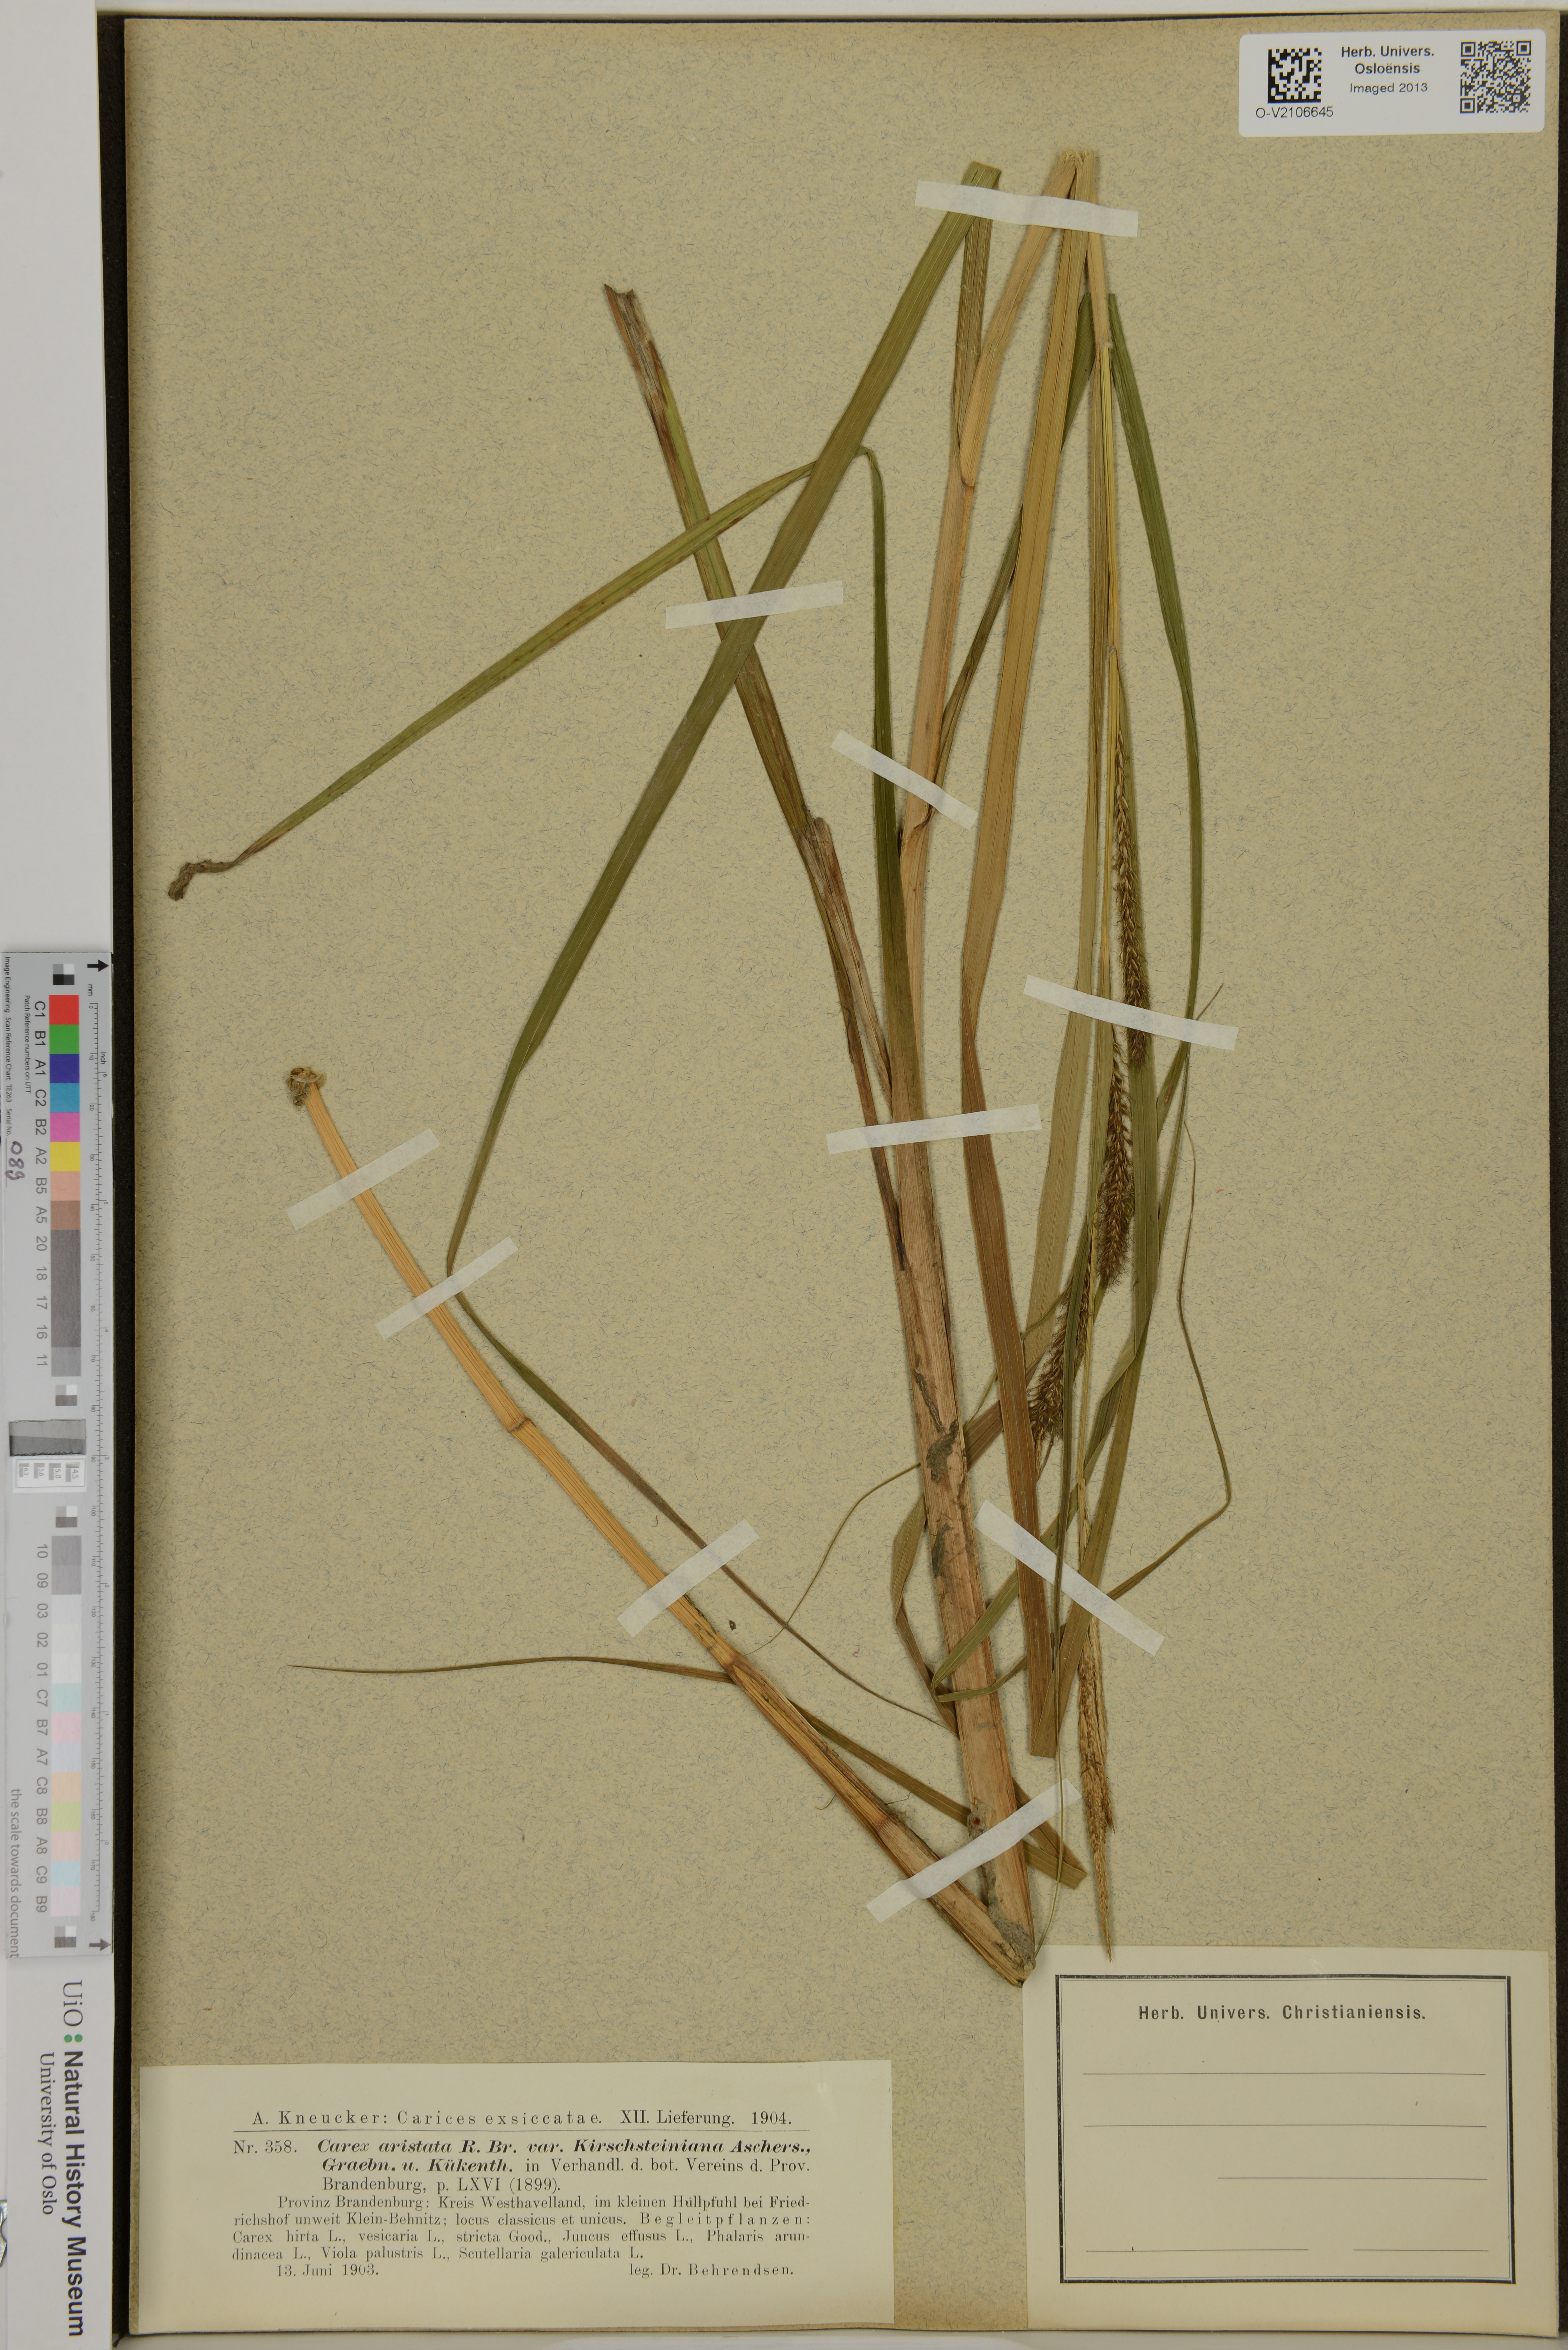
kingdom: Plantae
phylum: Tracheophyta
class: Liliopsida
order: Poales
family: Cyperaceae
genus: Carex
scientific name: Carex atherodes
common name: Wheat sedge
